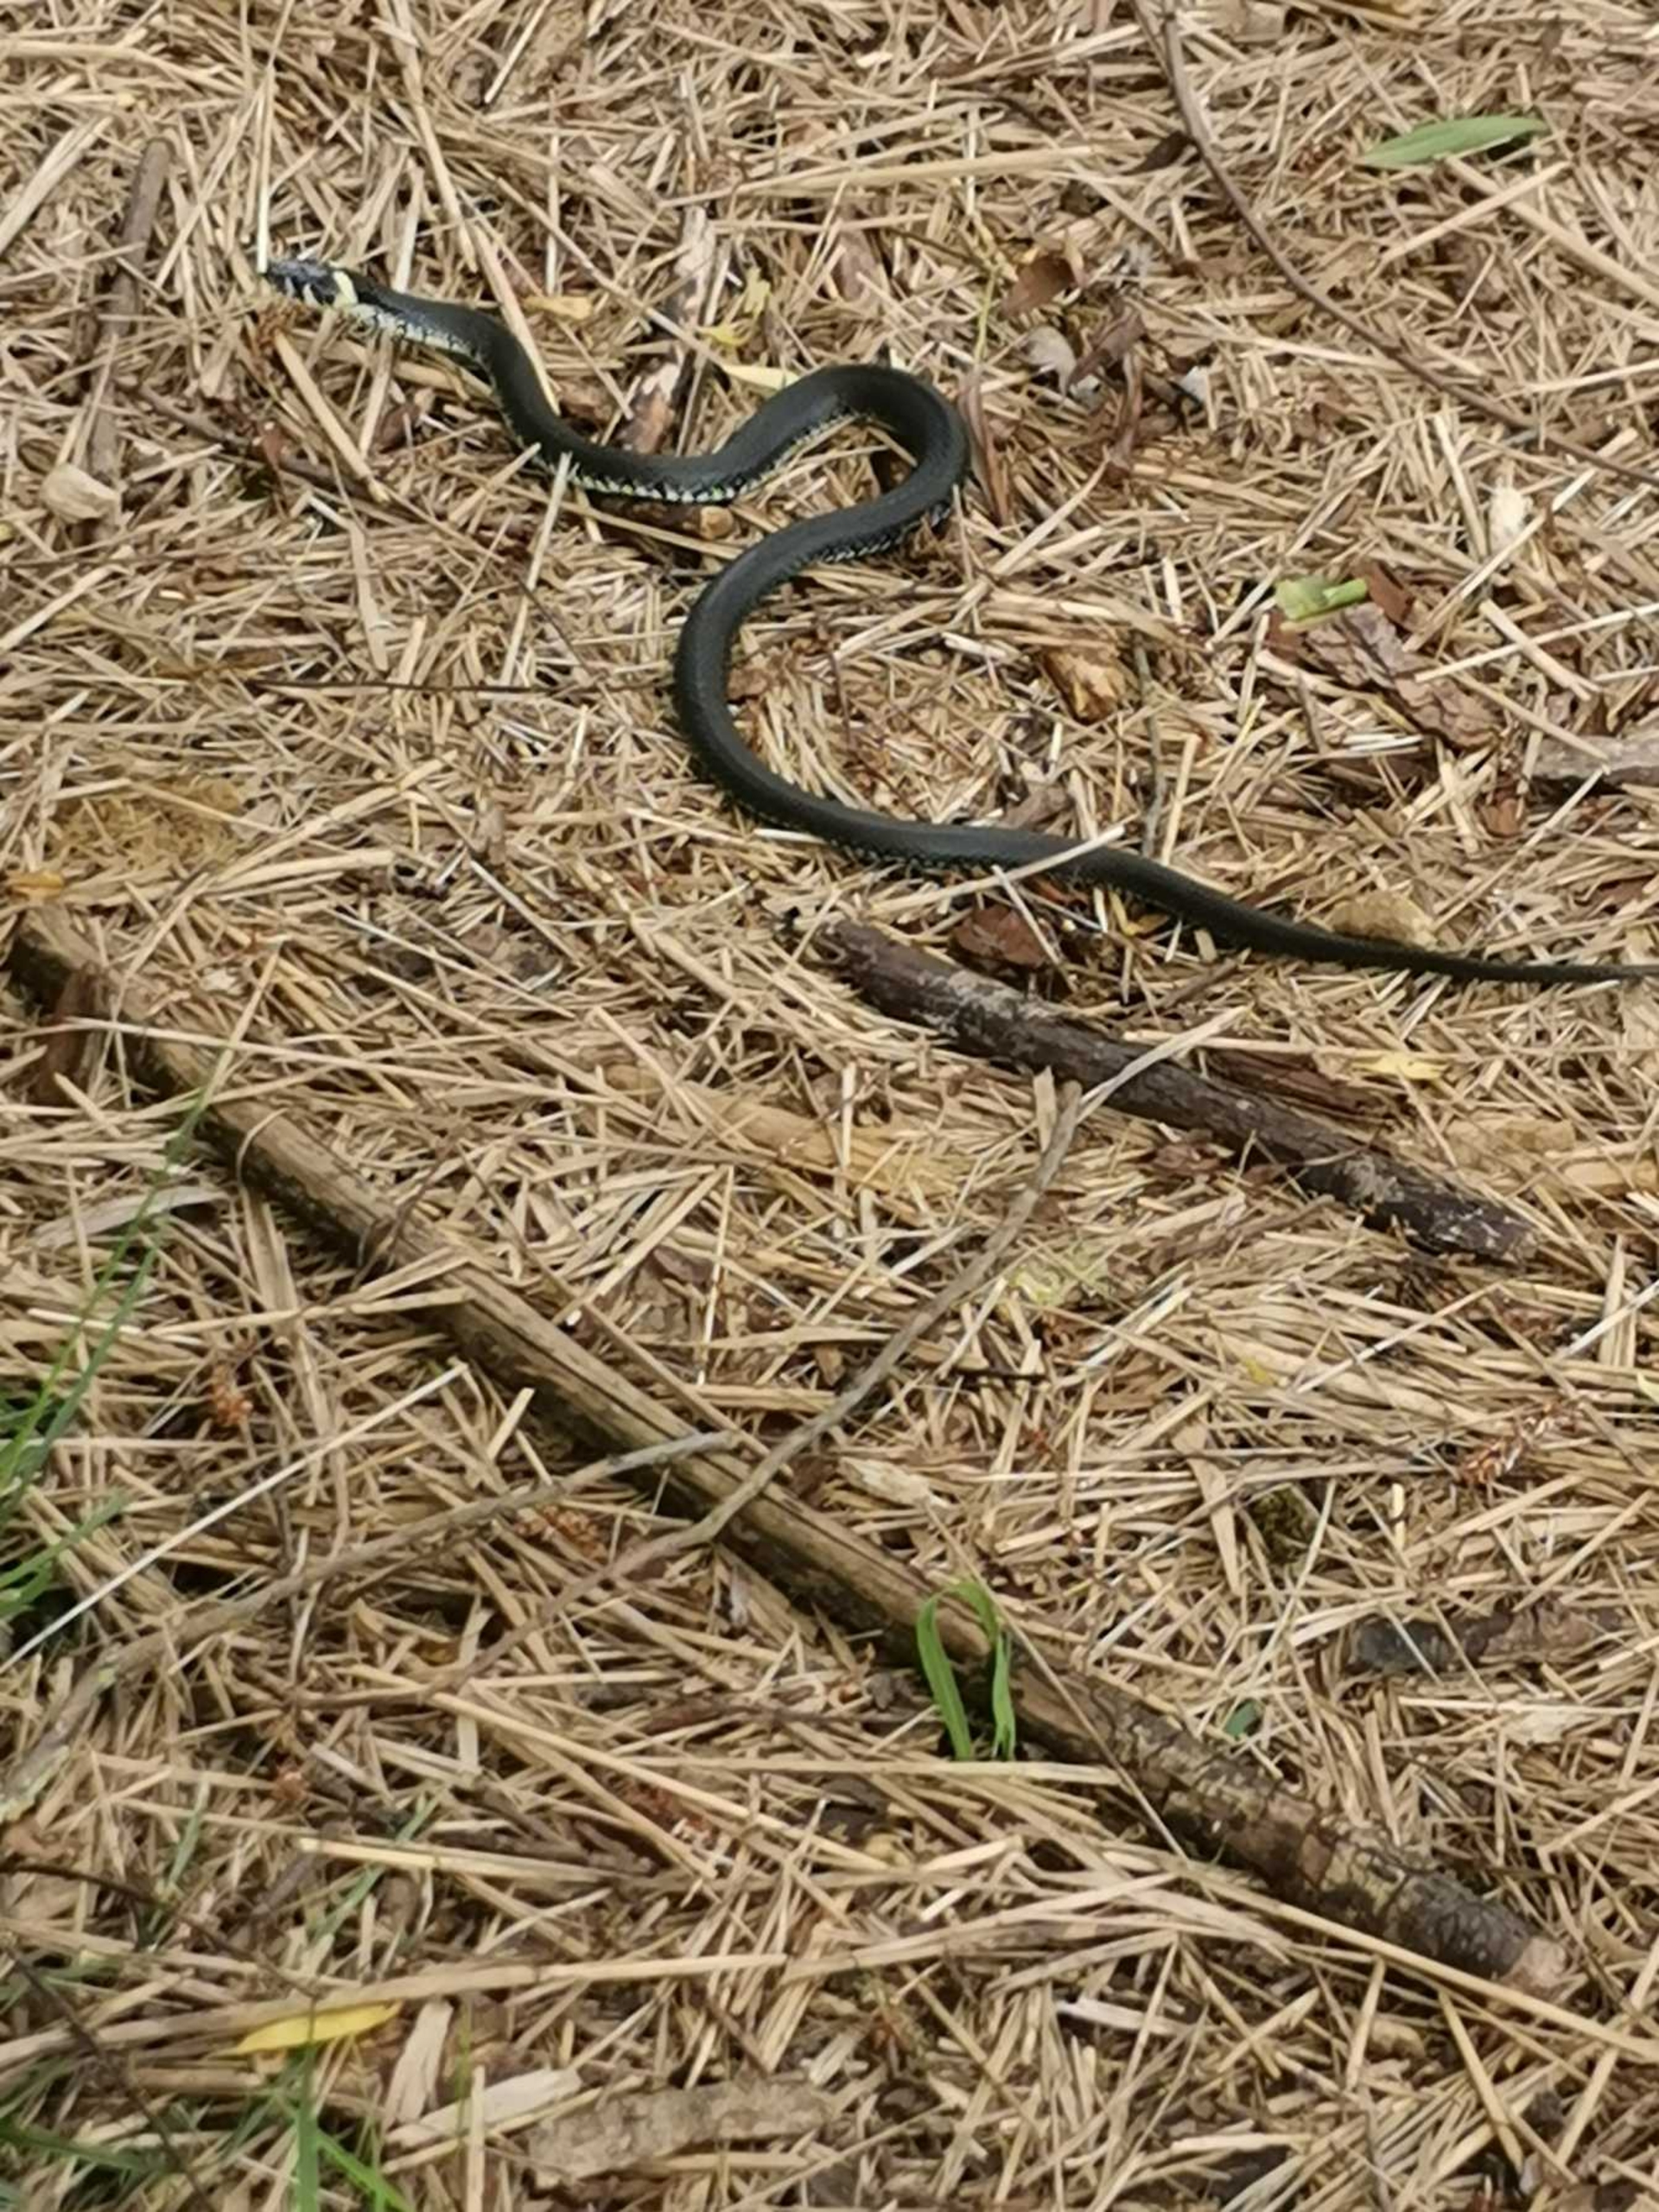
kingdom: Animalia
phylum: Chordata
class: Squamata
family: Colubridae
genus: Natrix
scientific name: Natrix natrix
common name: Snog
